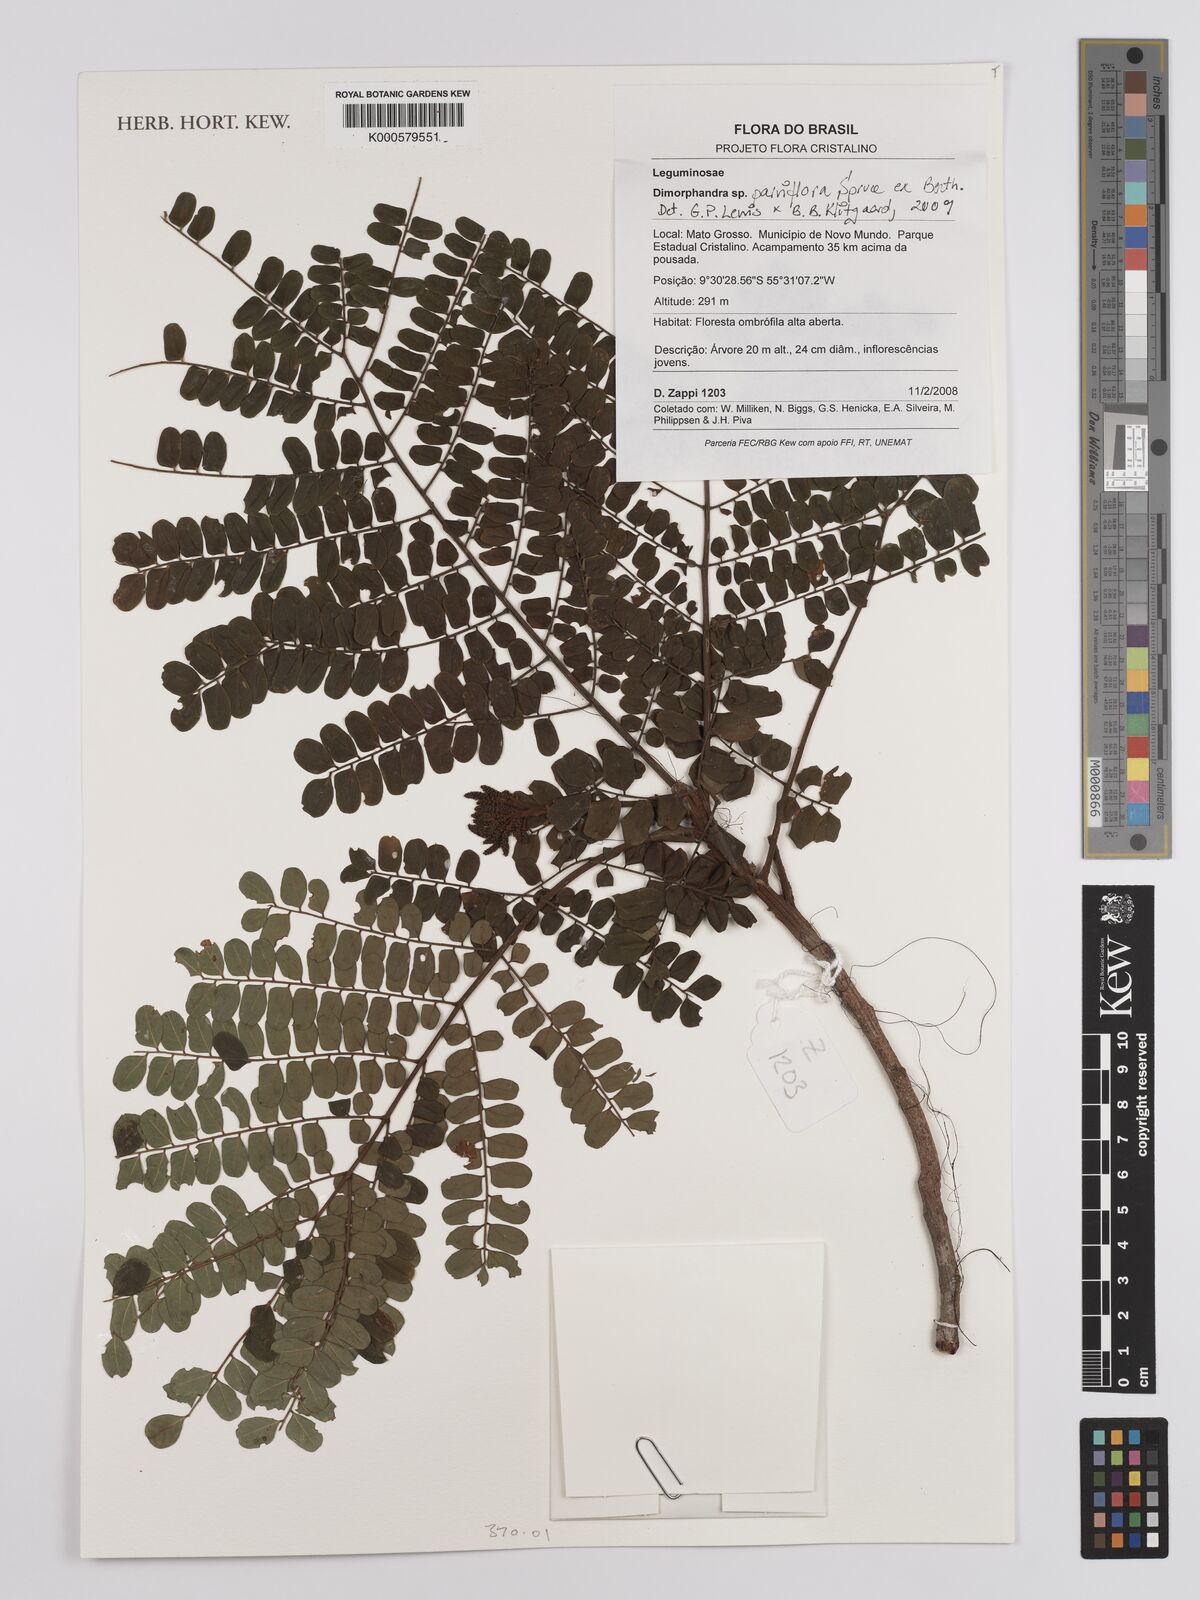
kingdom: Plantae
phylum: Tracheophyta
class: Magnoliopsida
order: Fabales
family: Fabaceae
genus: Dimorphandra
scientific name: Dimorphandra parviflora
